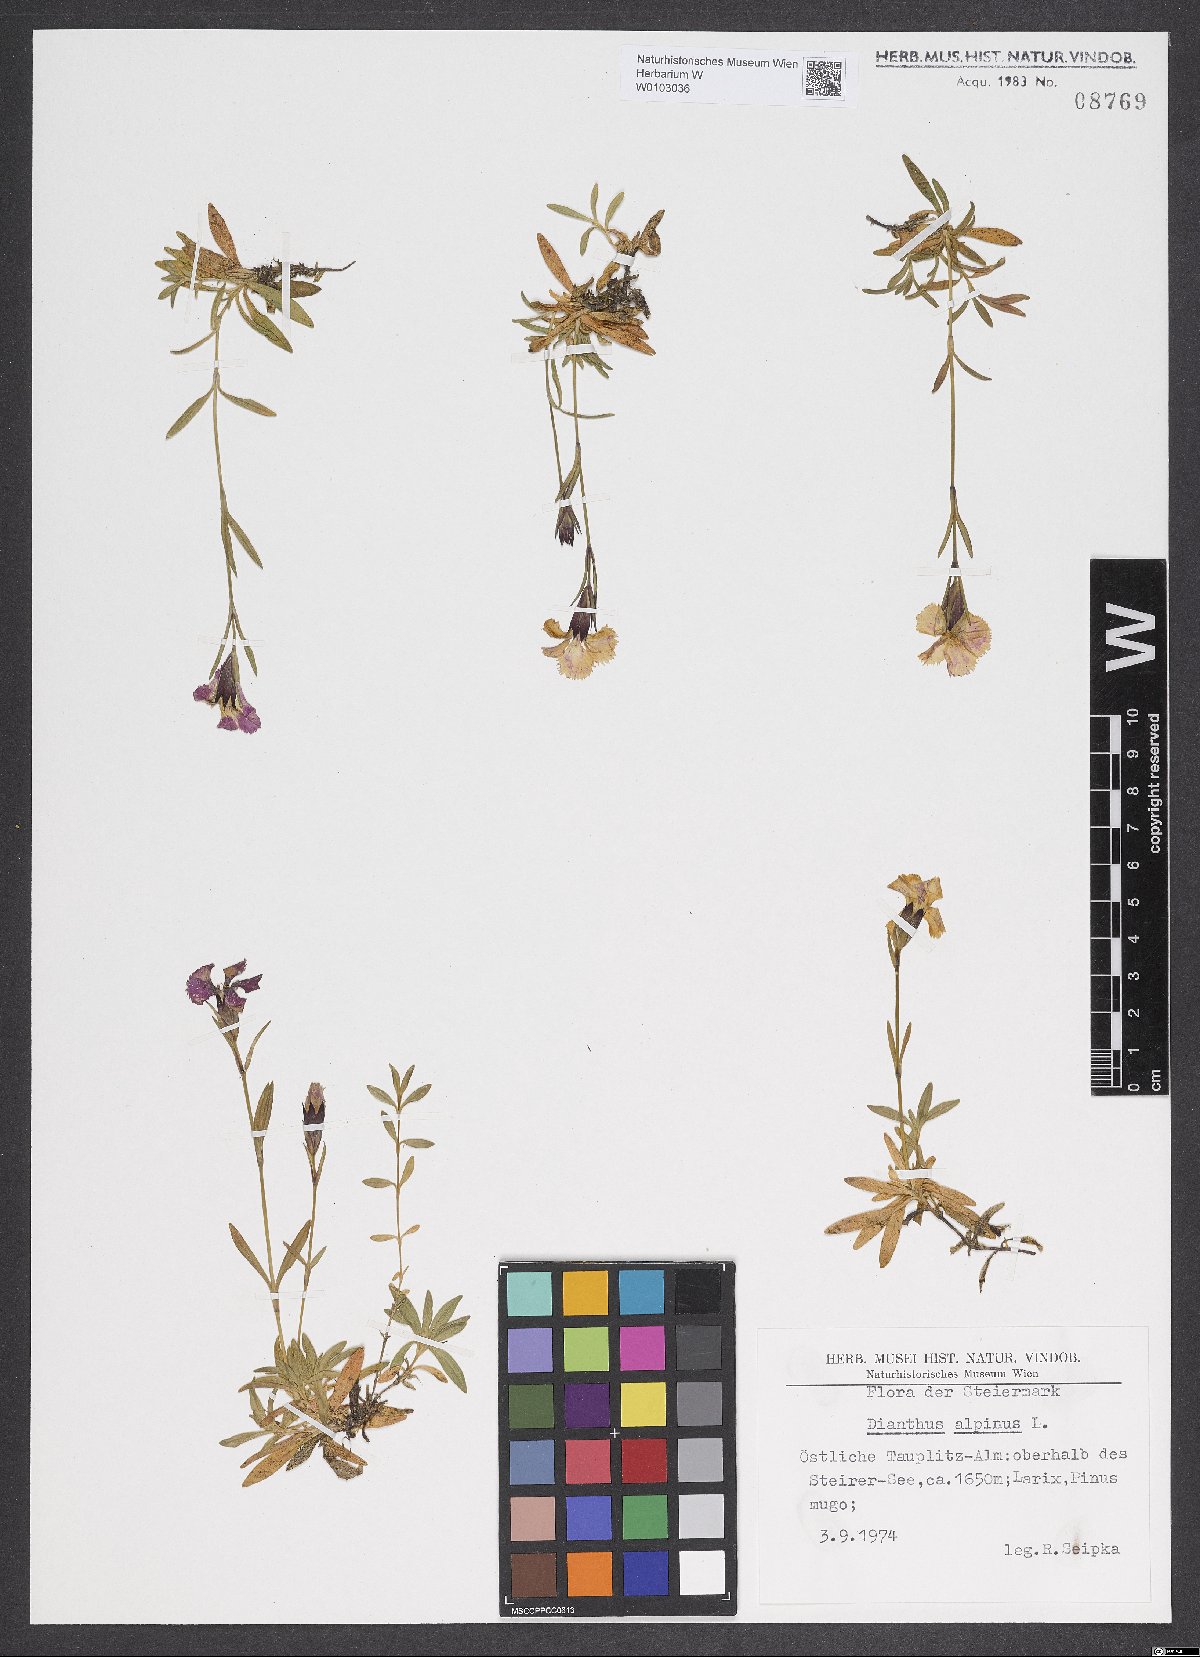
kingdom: Plantae
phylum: Tracheophyta
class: Magnoliopsida
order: Caryophyllales
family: Caryophyllaceae
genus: Dianthus
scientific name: Dianthus alpinus
